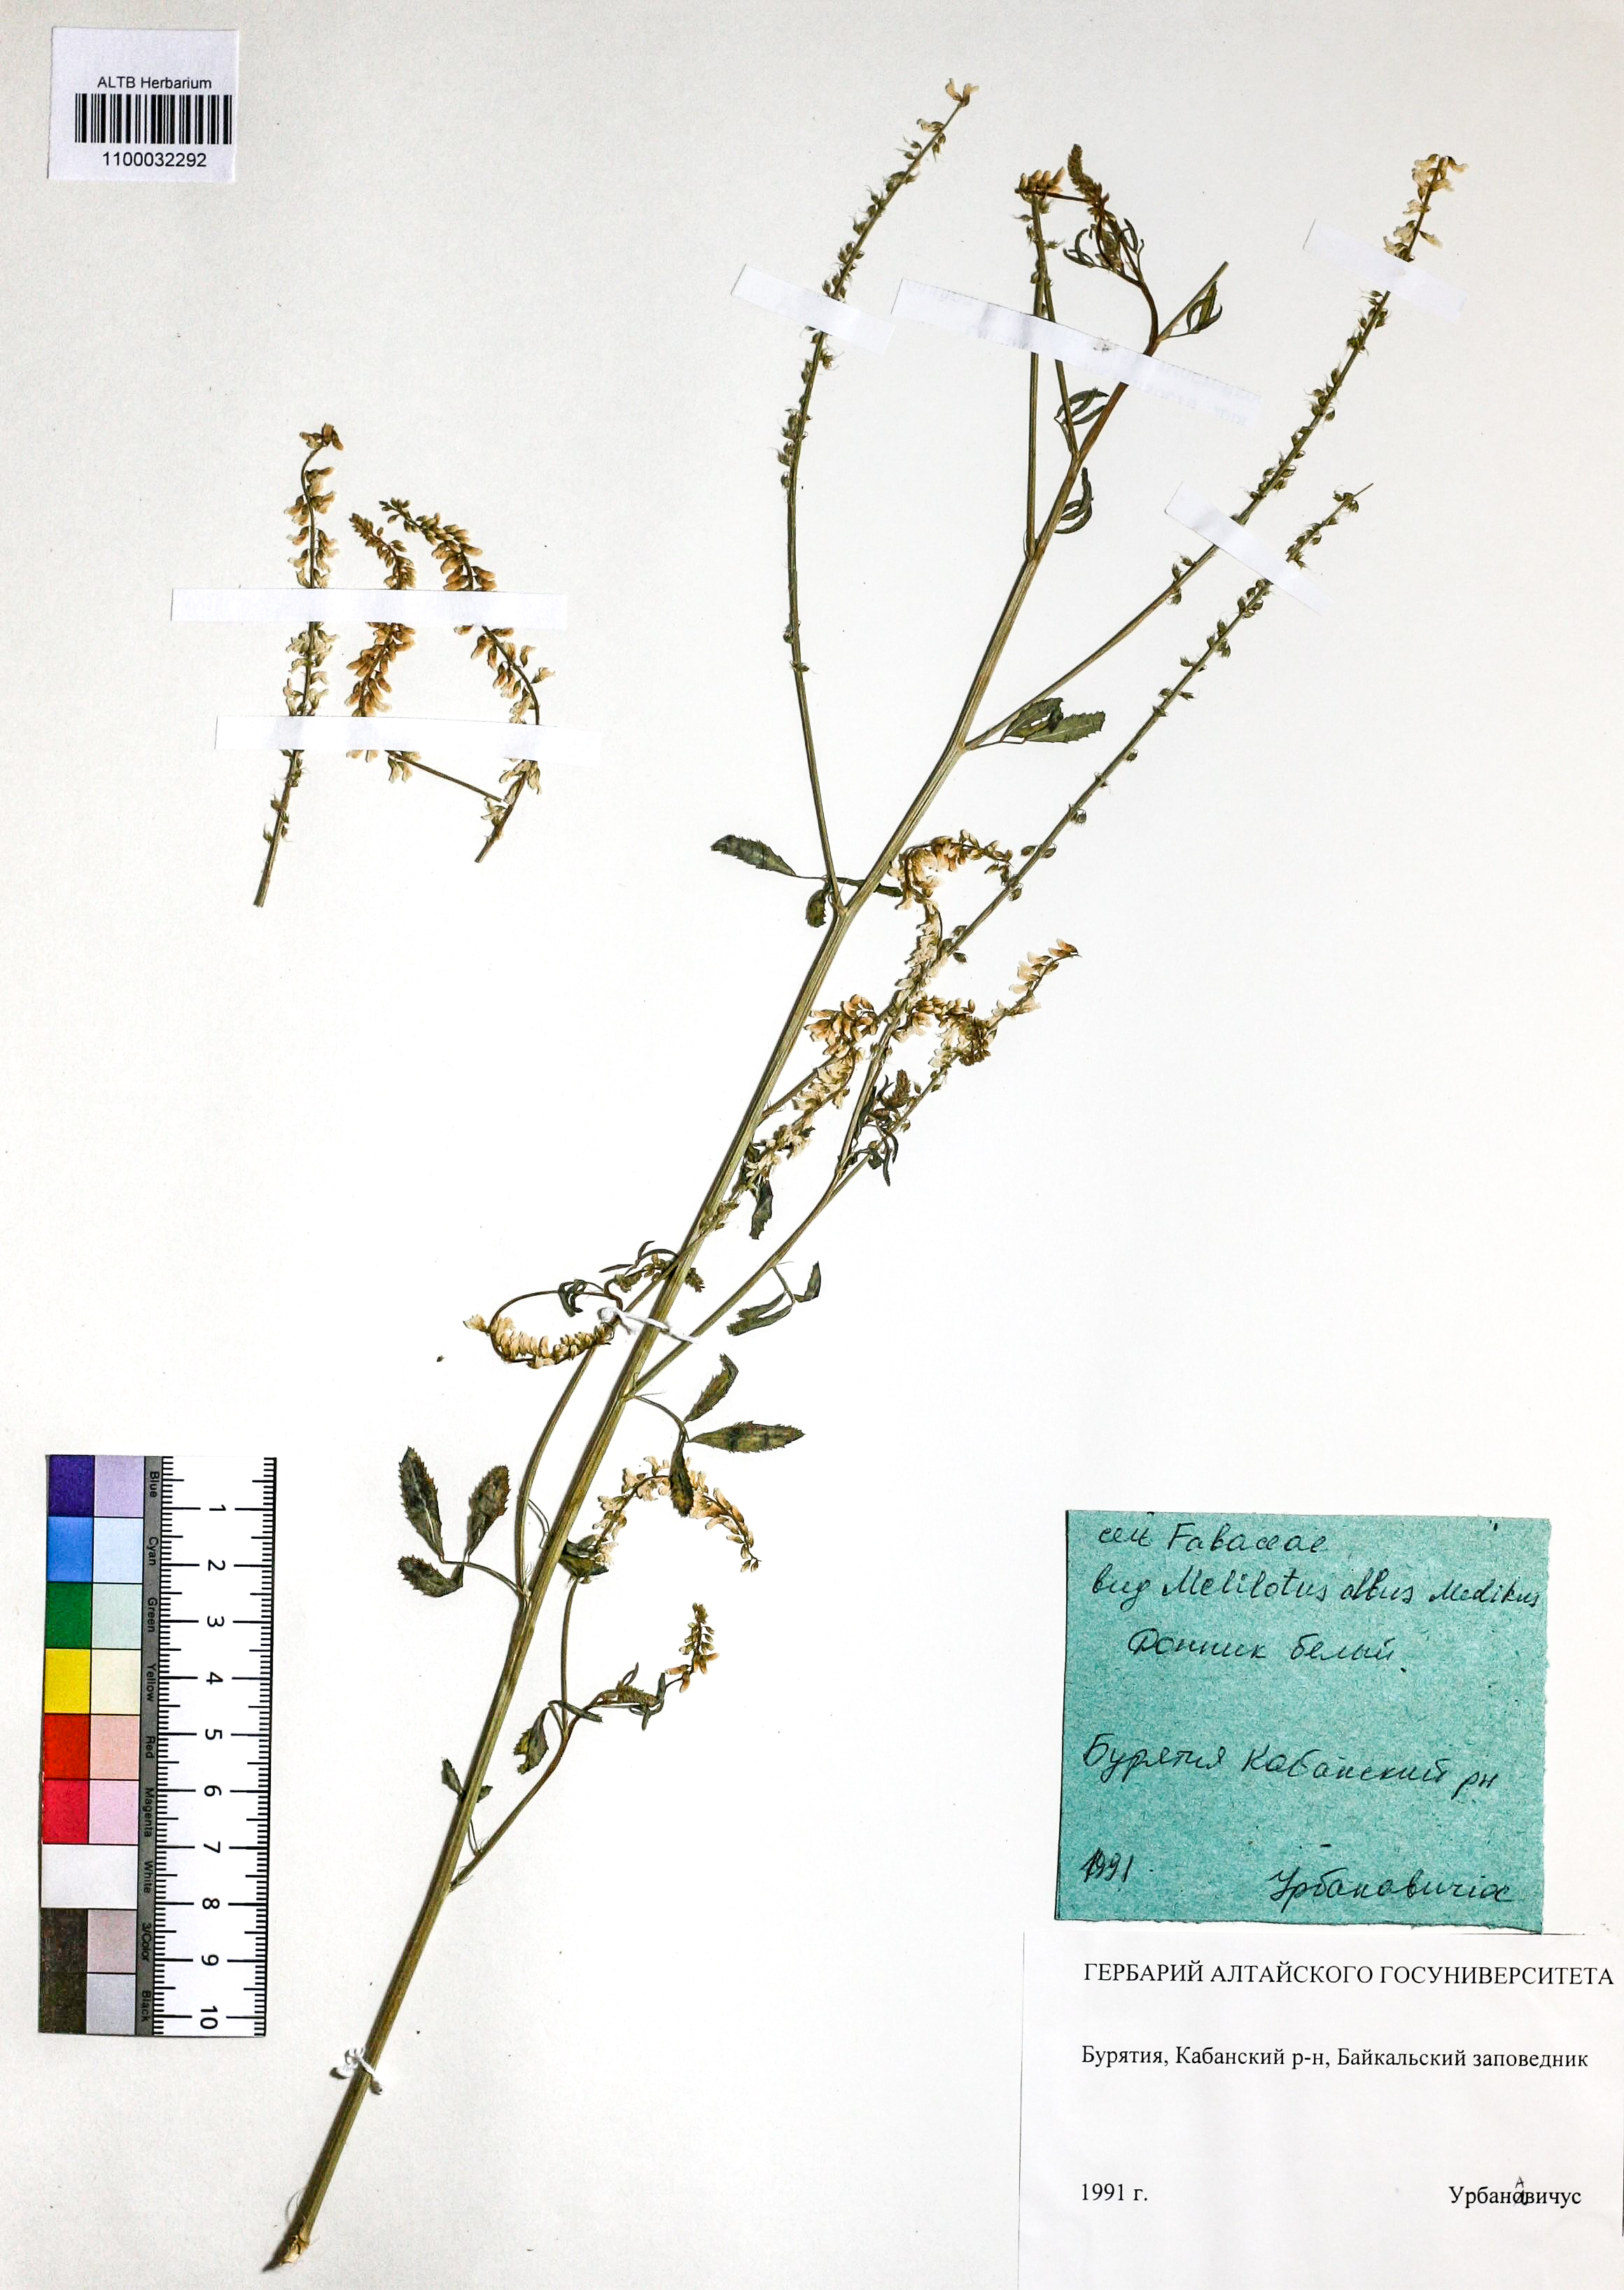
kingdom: Plantae
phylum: Tracheophyta
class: Magnoliopsida
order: Fabales
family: Fabaceae
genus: Melilotus
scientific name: Melilotus albus
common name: White melilot
